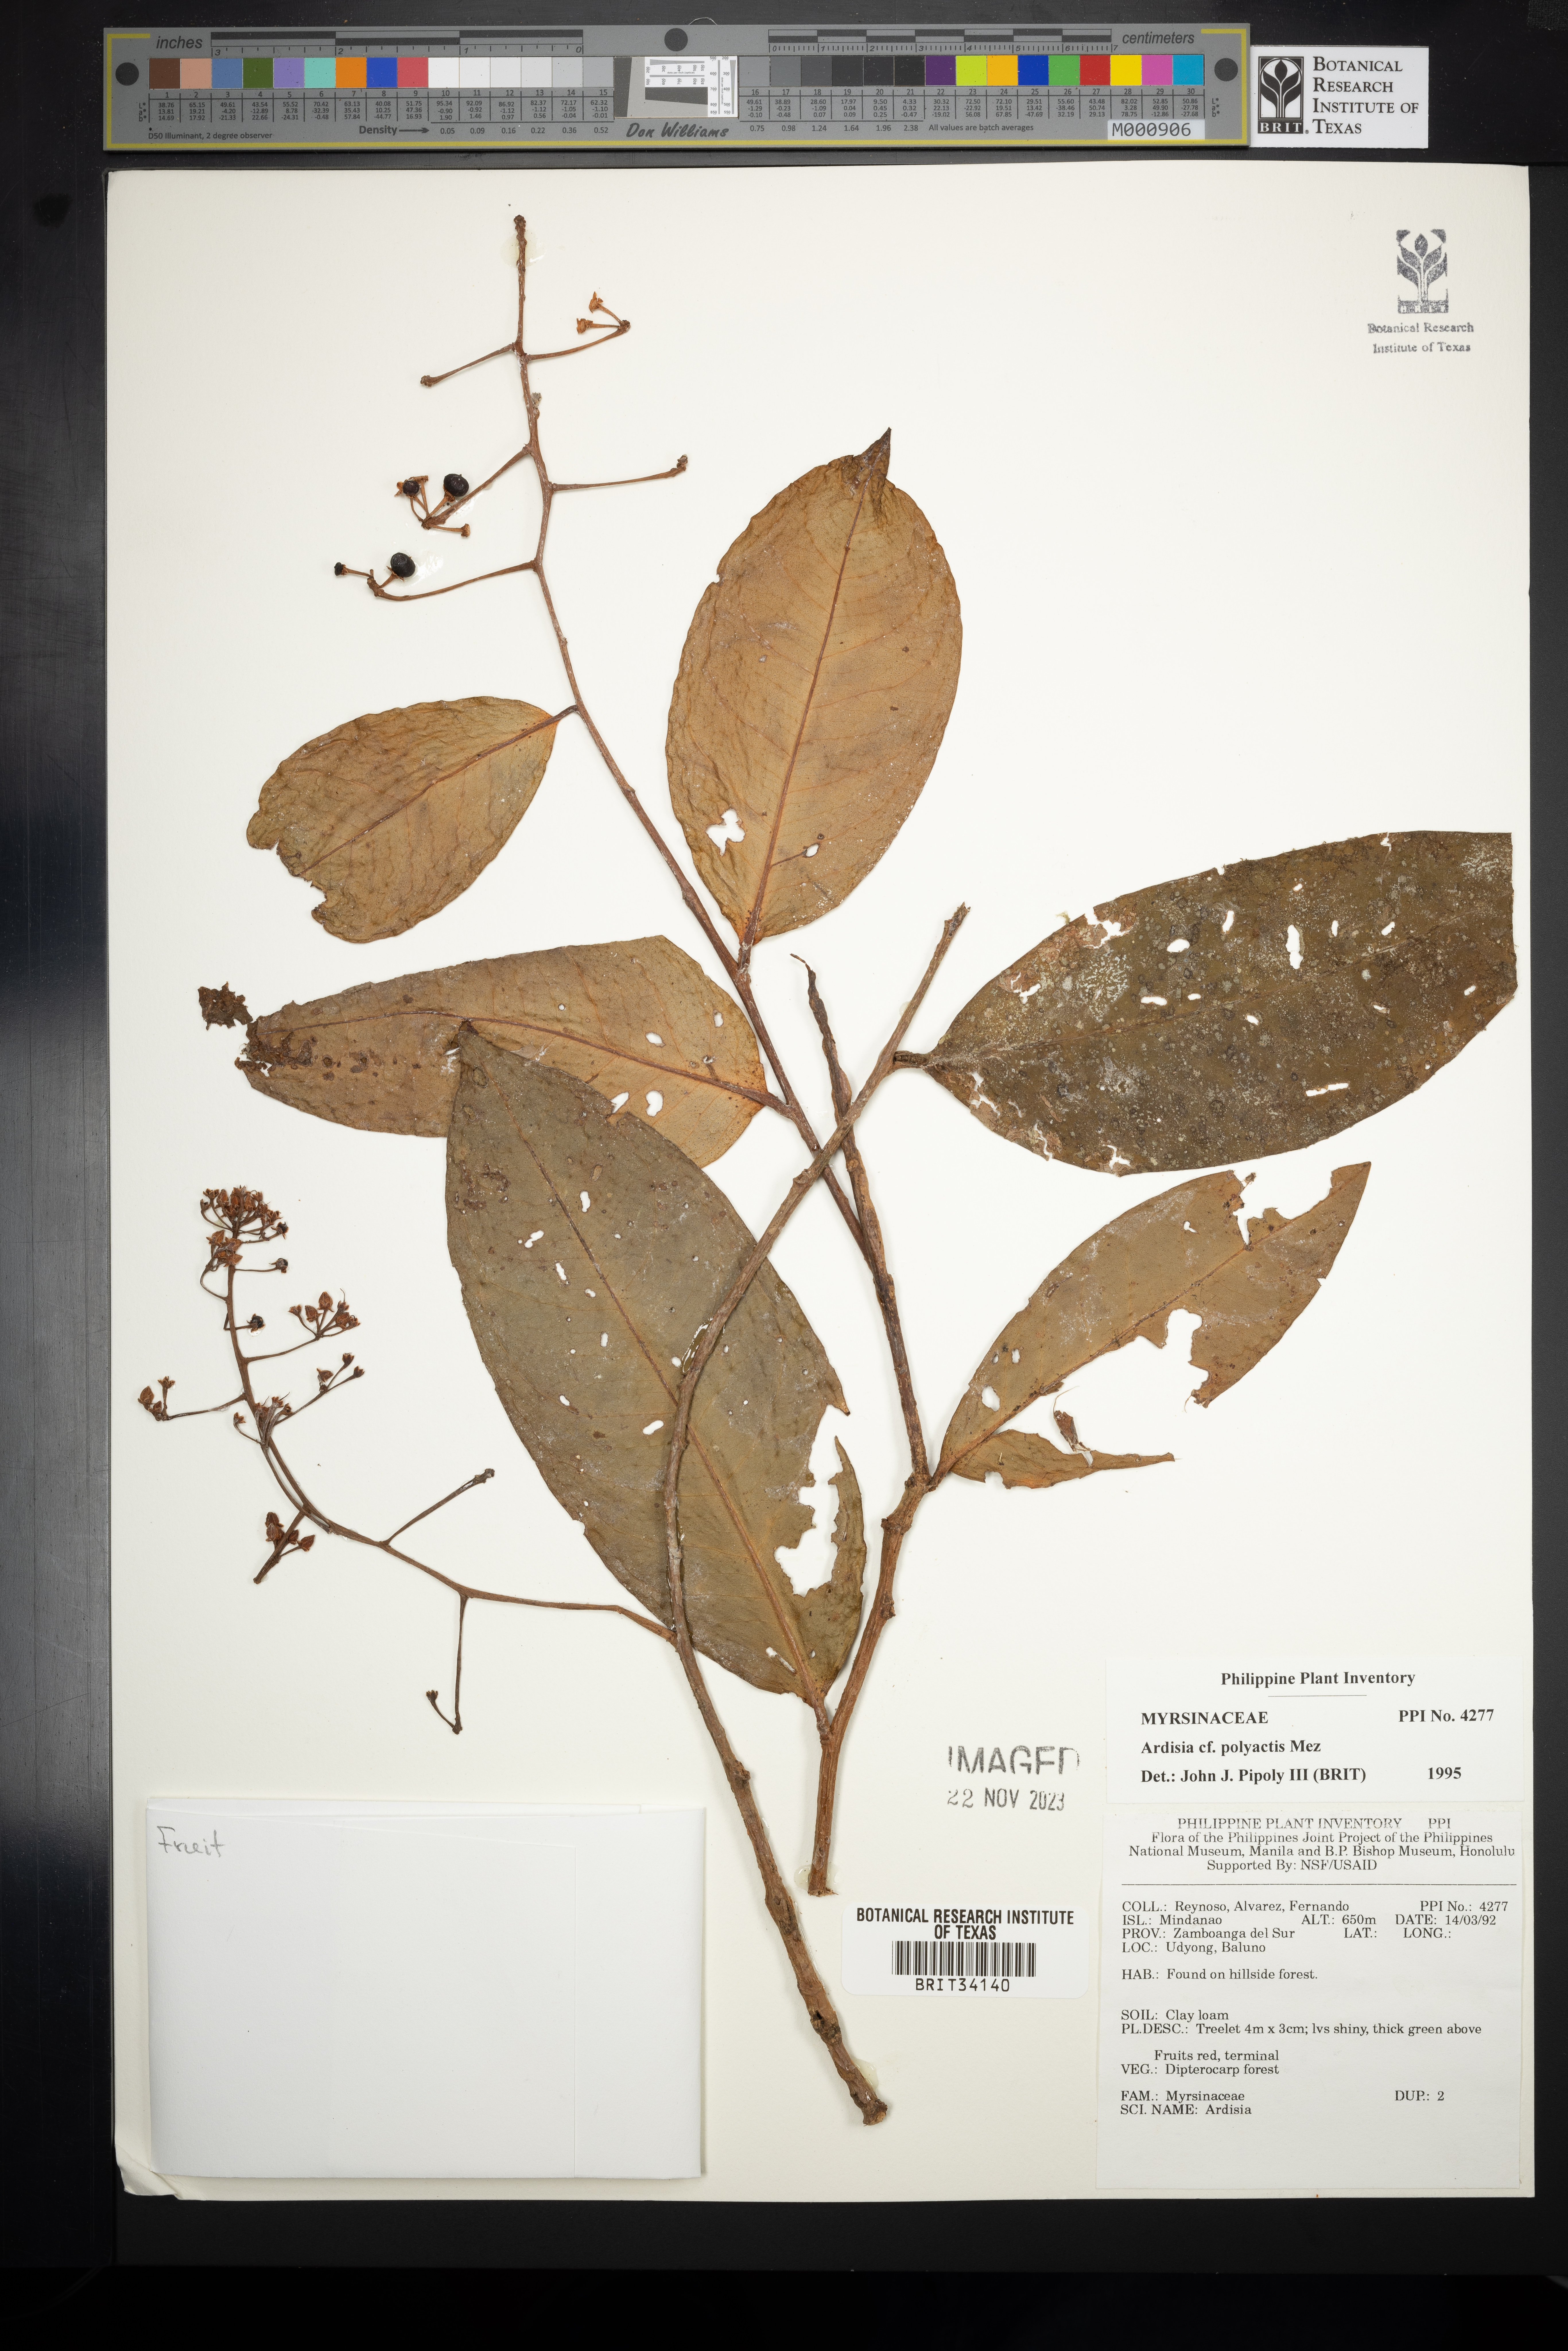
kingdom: Plantae
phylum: Tracheophyta
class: Magnoliopsida
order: Ericales
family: Primulaceae
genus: Ardisia
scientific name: Ardisia polyactis
